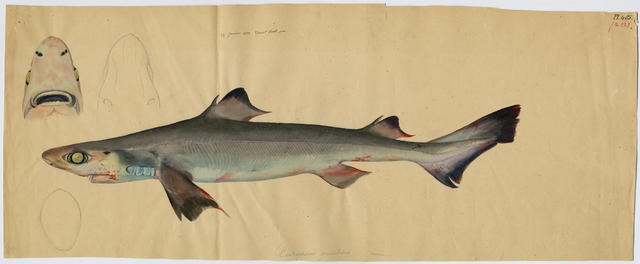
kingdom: Animalia
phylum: Chordata
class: Elasmobranchii
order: Squaliformes
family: Centrophoridae
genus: Centrophorus
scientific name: Centrophorus uyato
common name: Little gulper shark
